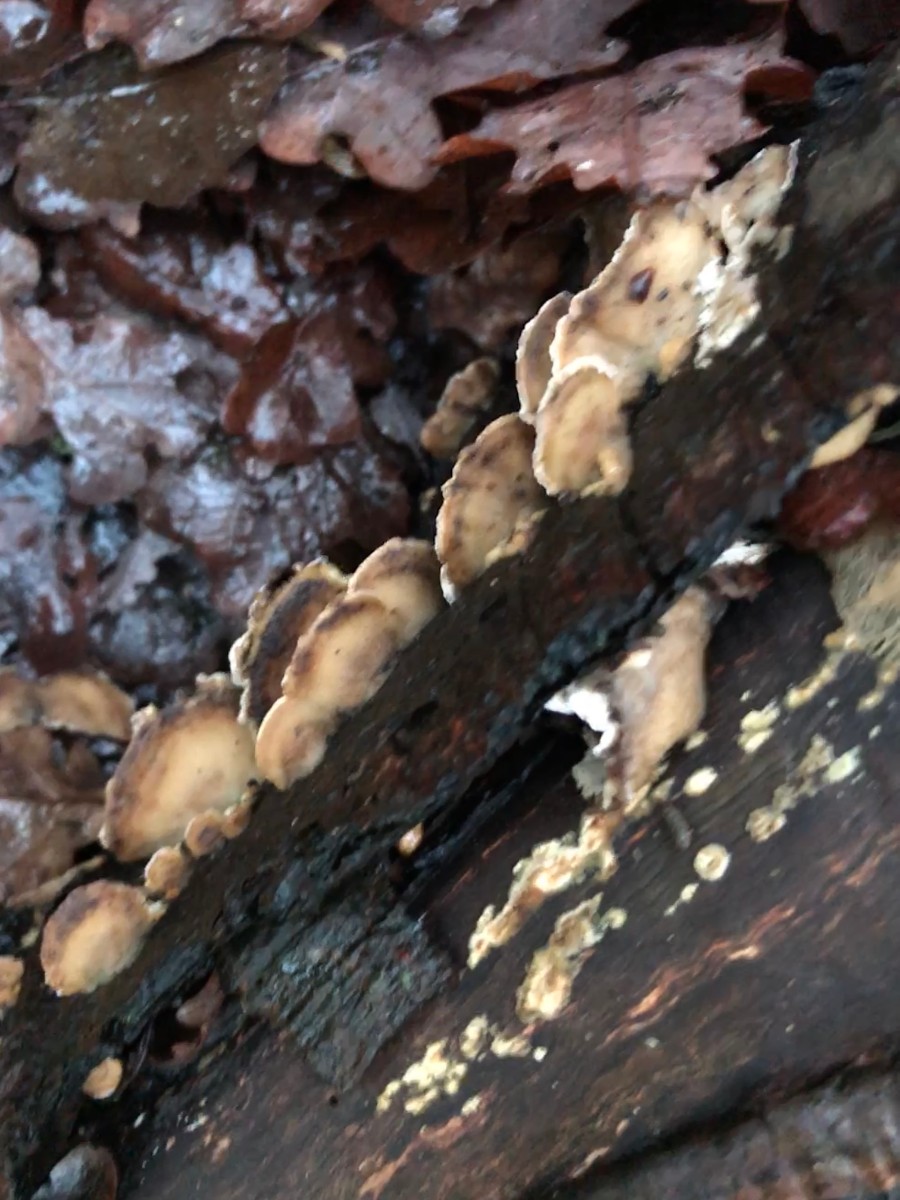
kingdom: Fungi
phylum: Basidiomycota
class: Agaricomycetes
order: Polyporales
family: Phanerochaetaceae
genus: Bjerkandera
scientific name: Bjerkandera adusta
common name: sveden sodporesvamp
